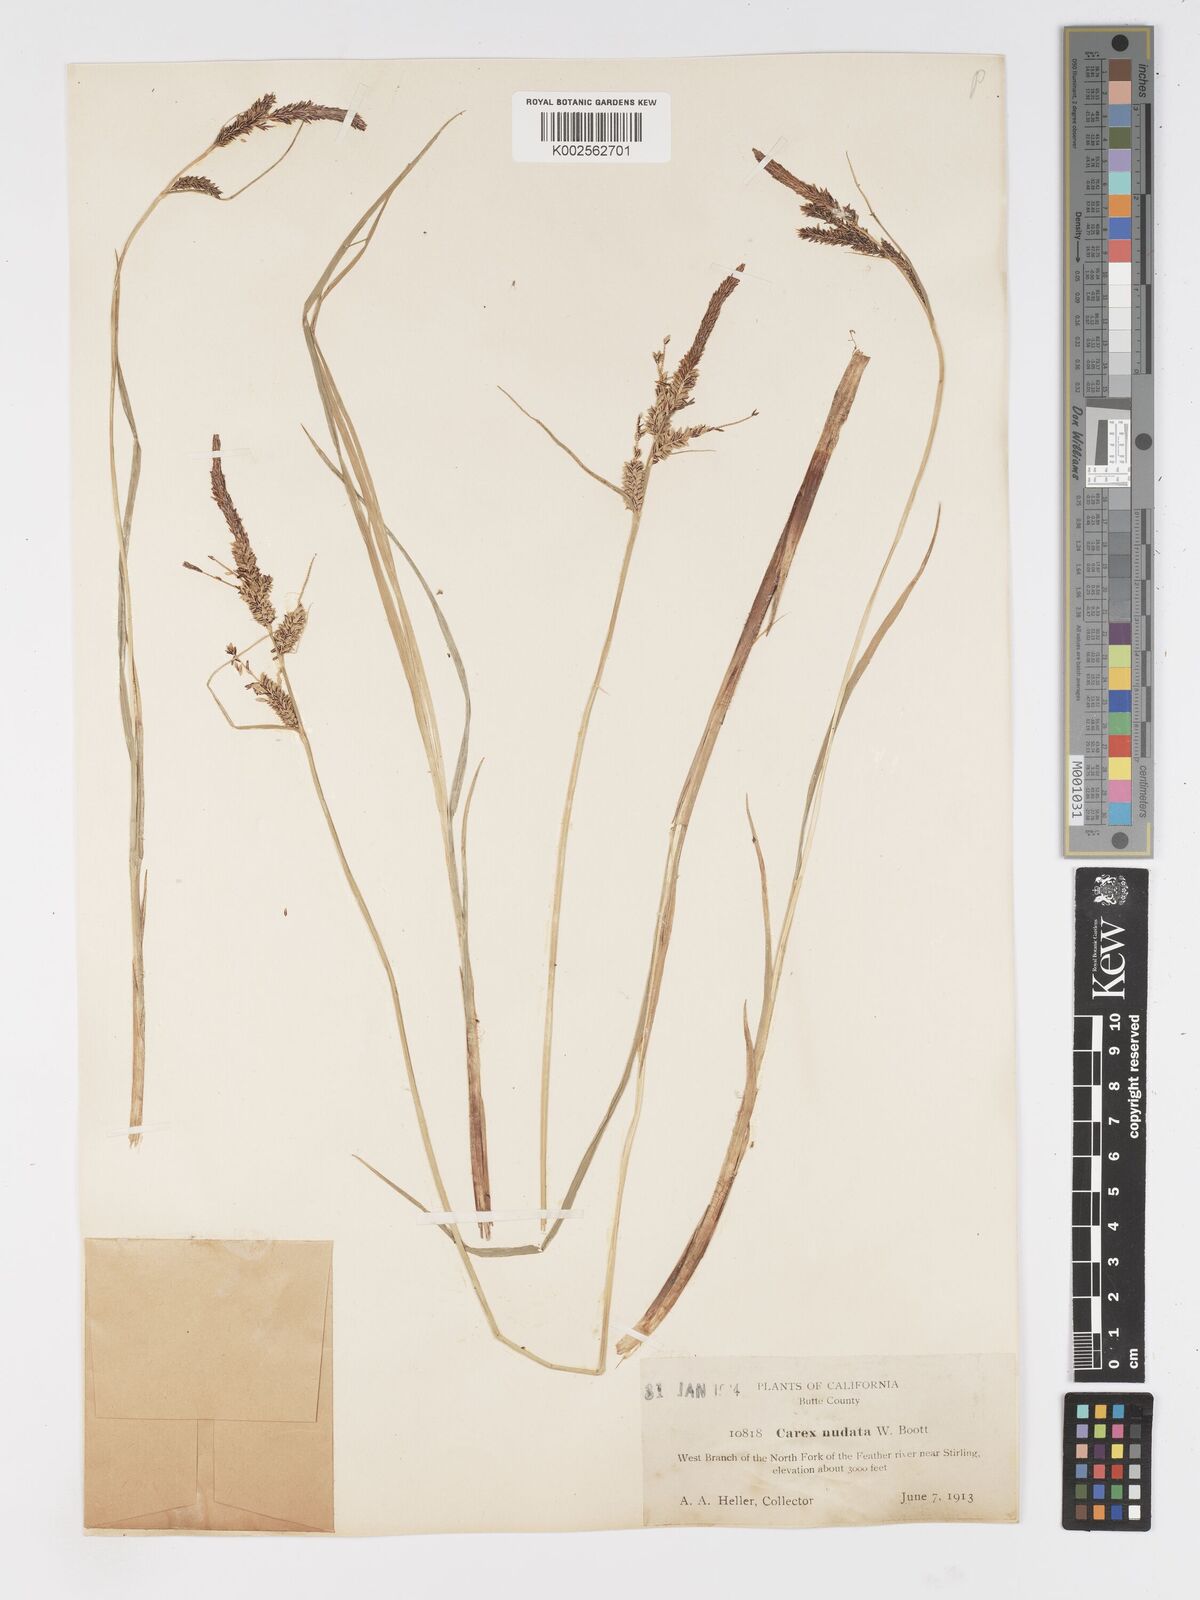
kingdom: Plantae
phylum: Tracheophyta
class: Liliopsida
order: Poales
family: Cyperaceae
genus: Carex
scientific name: Carex nudata
